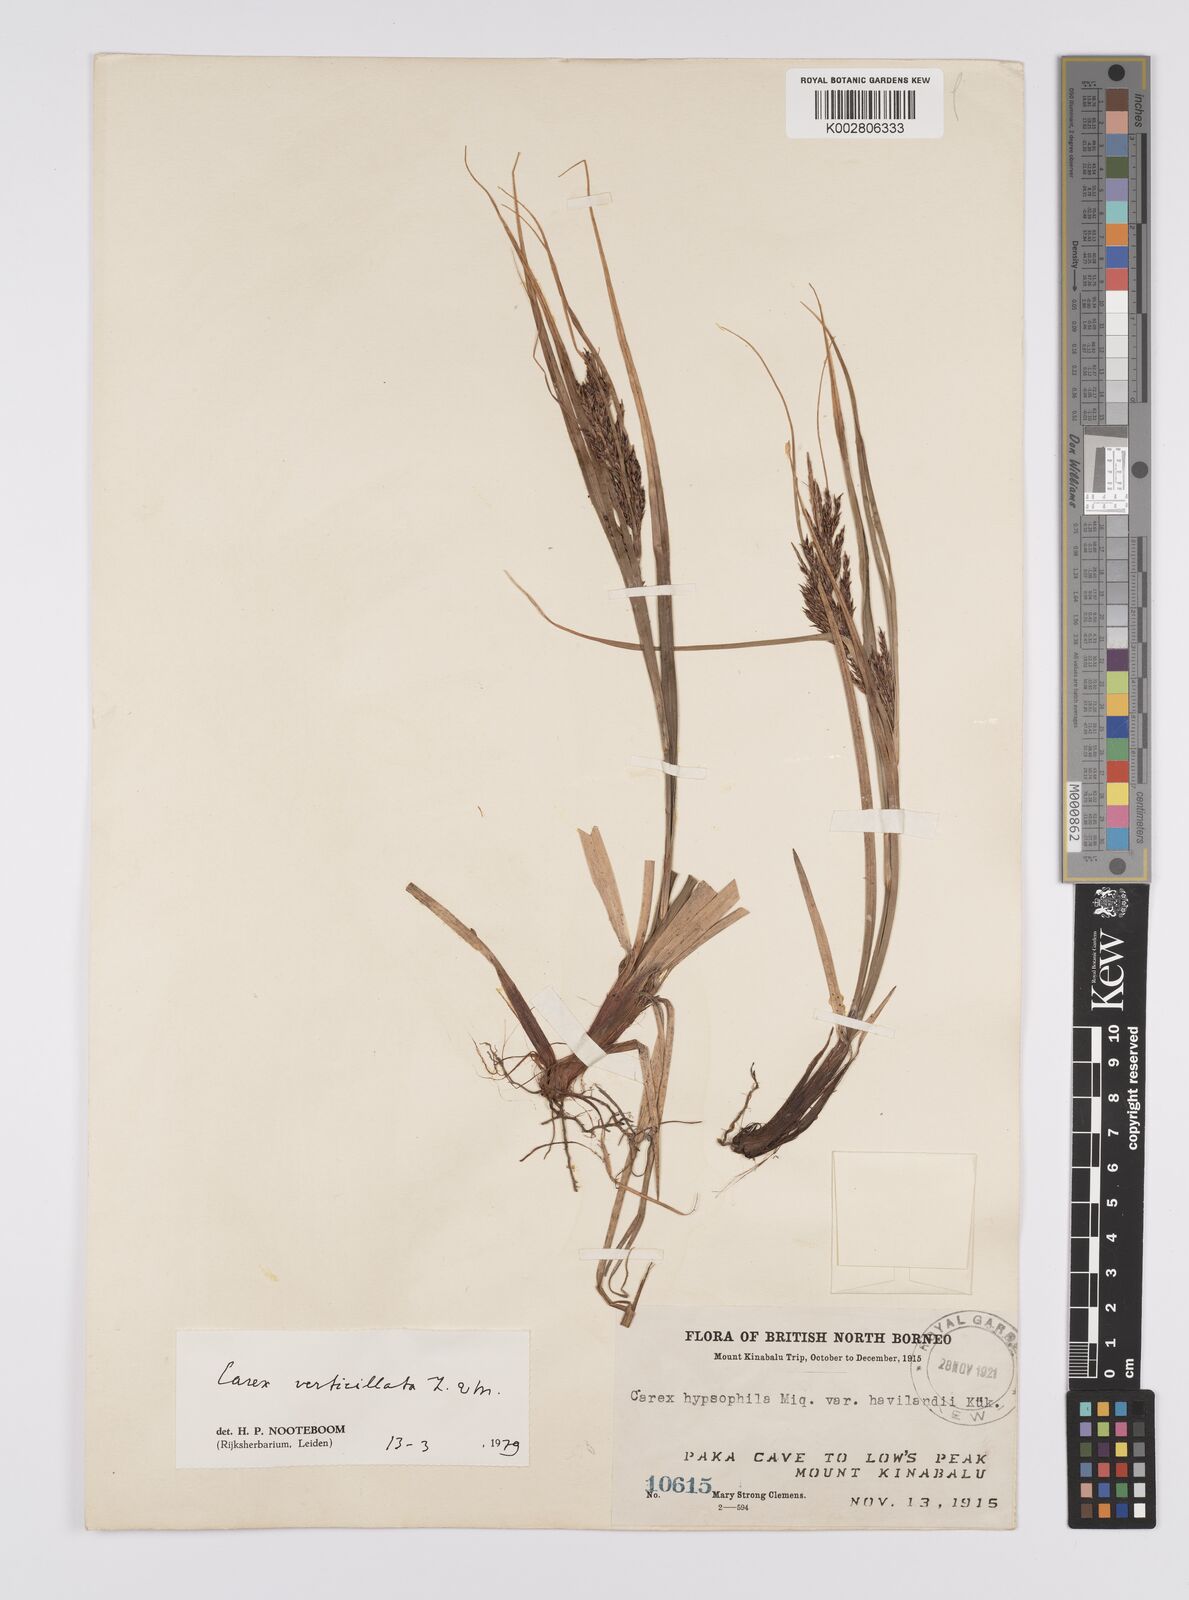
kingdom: Plantae
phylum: Tracheophyta
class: Liliopsida
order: Poales
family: Cyperaceae
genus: Carex
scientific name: Carex verticillata
